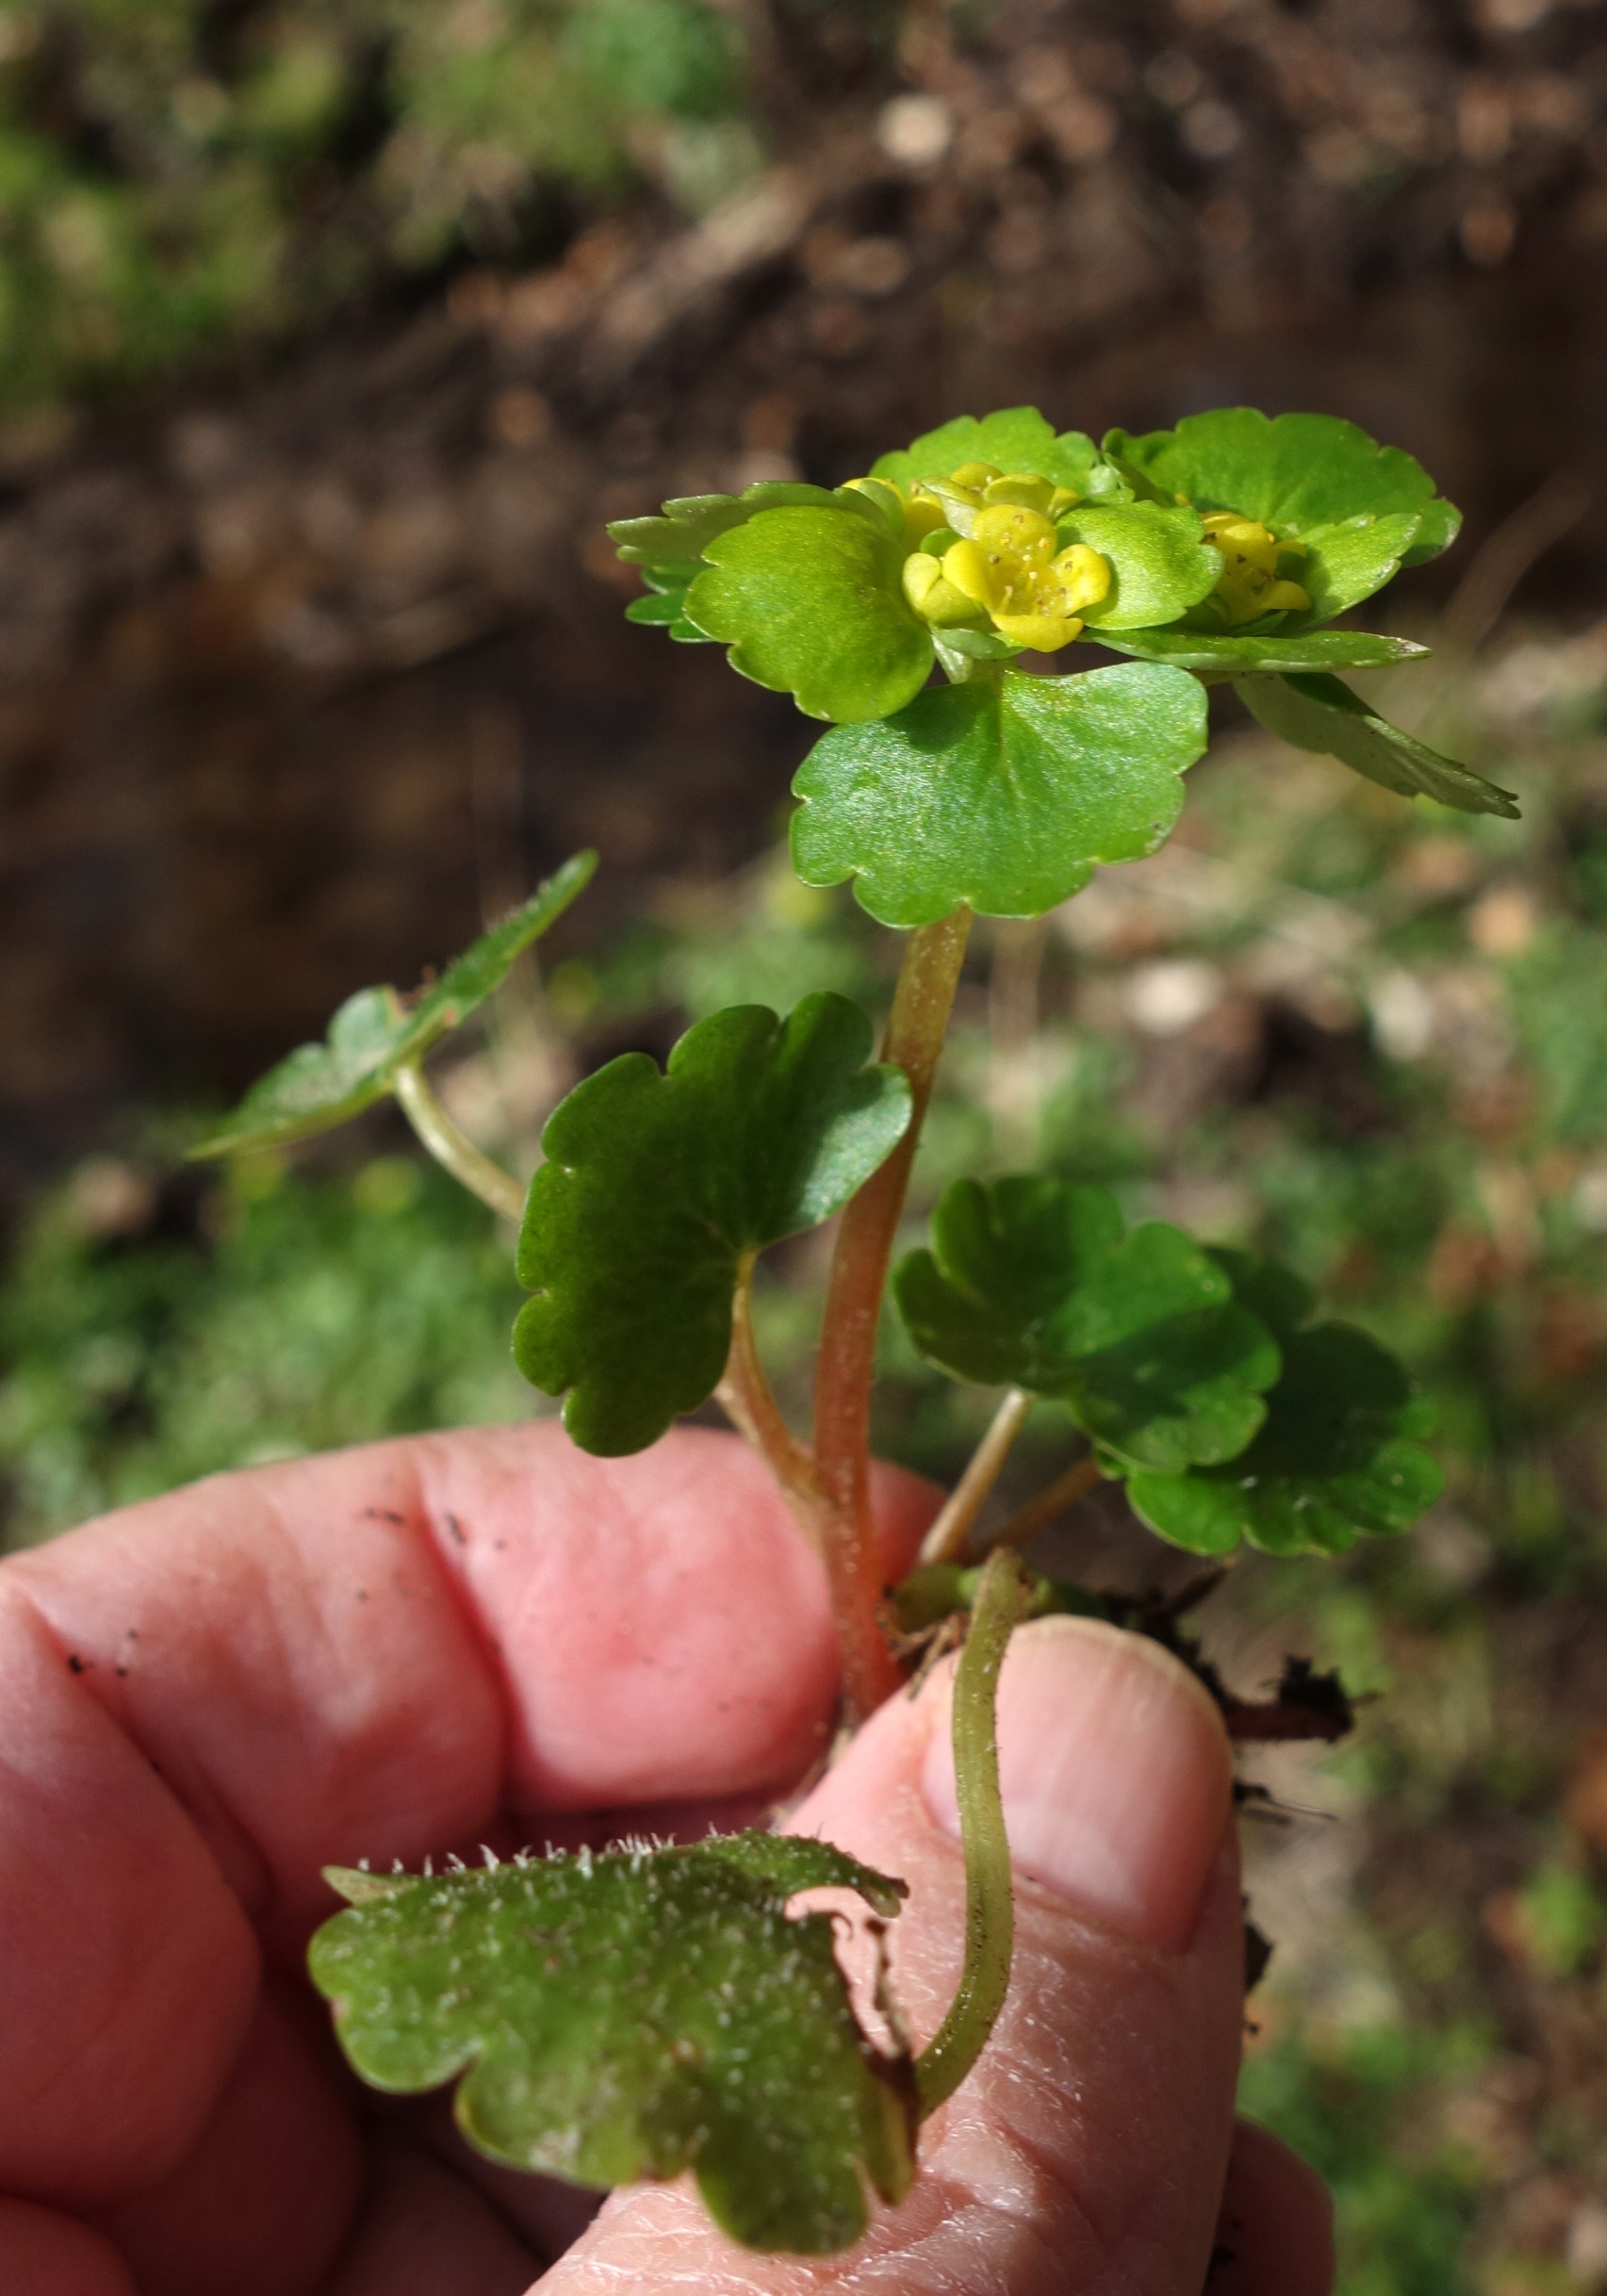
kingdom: Plantae
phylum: Tracheophyta
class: Magnoliopsida
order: Saxifragales
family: Saxifragaceae
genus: Chrysosplenium
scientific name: Chrysosplenium alternifolium
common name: Almindelig milturt
